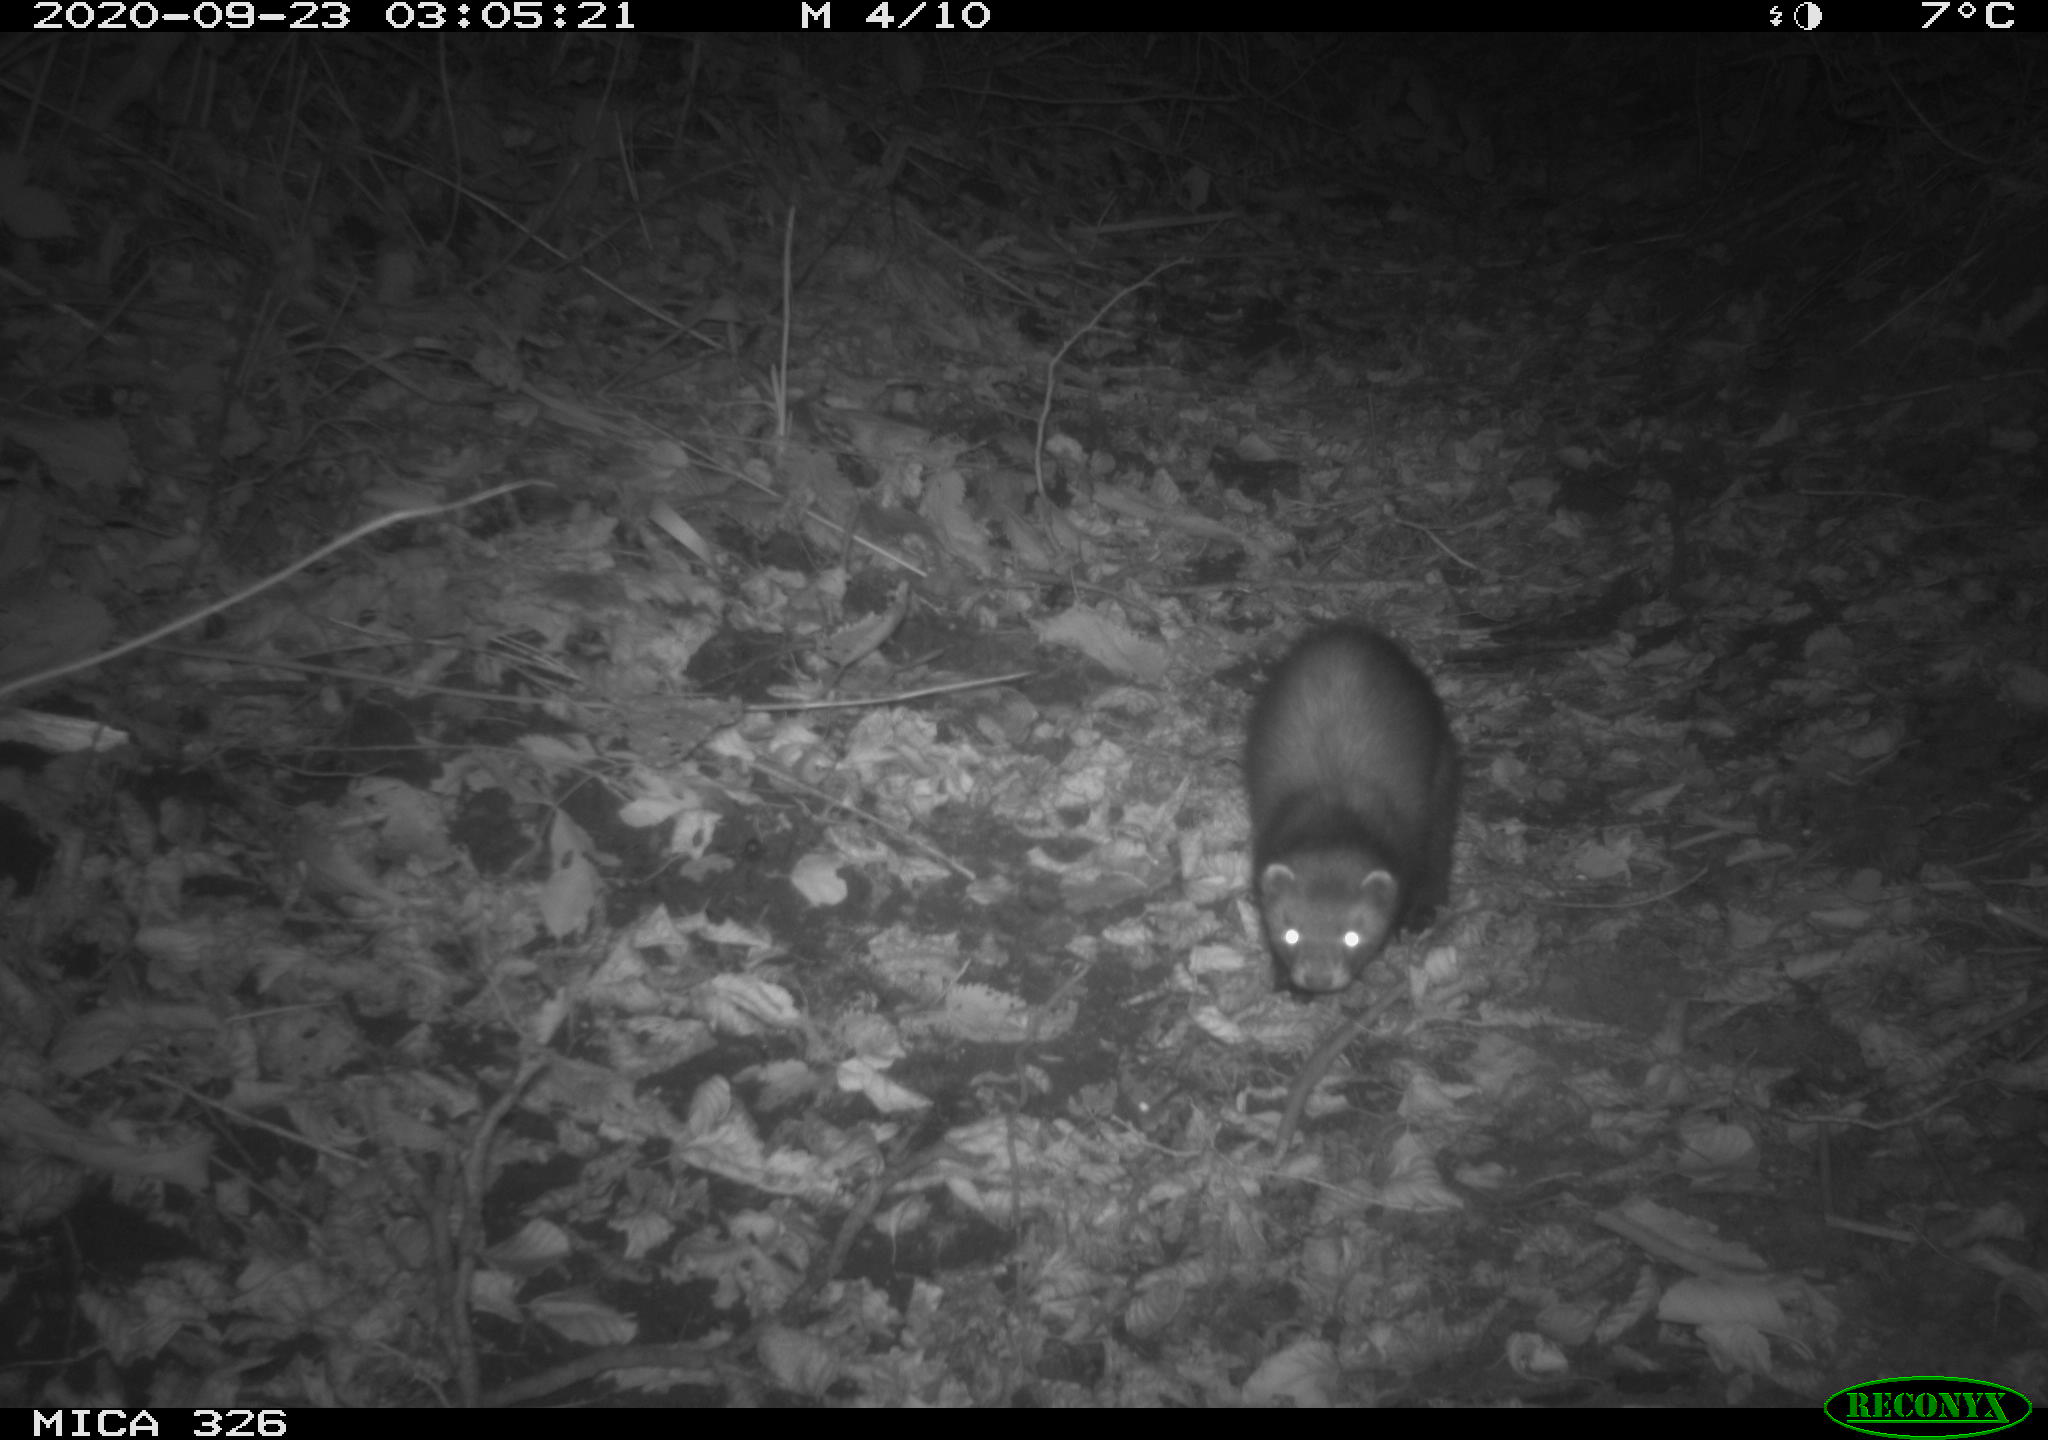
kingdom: Animalia
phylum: Chordata
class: Mammalia
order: Carnivora
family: Mustelidae
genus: Martes
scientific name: Martes martes
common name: European pine marten
